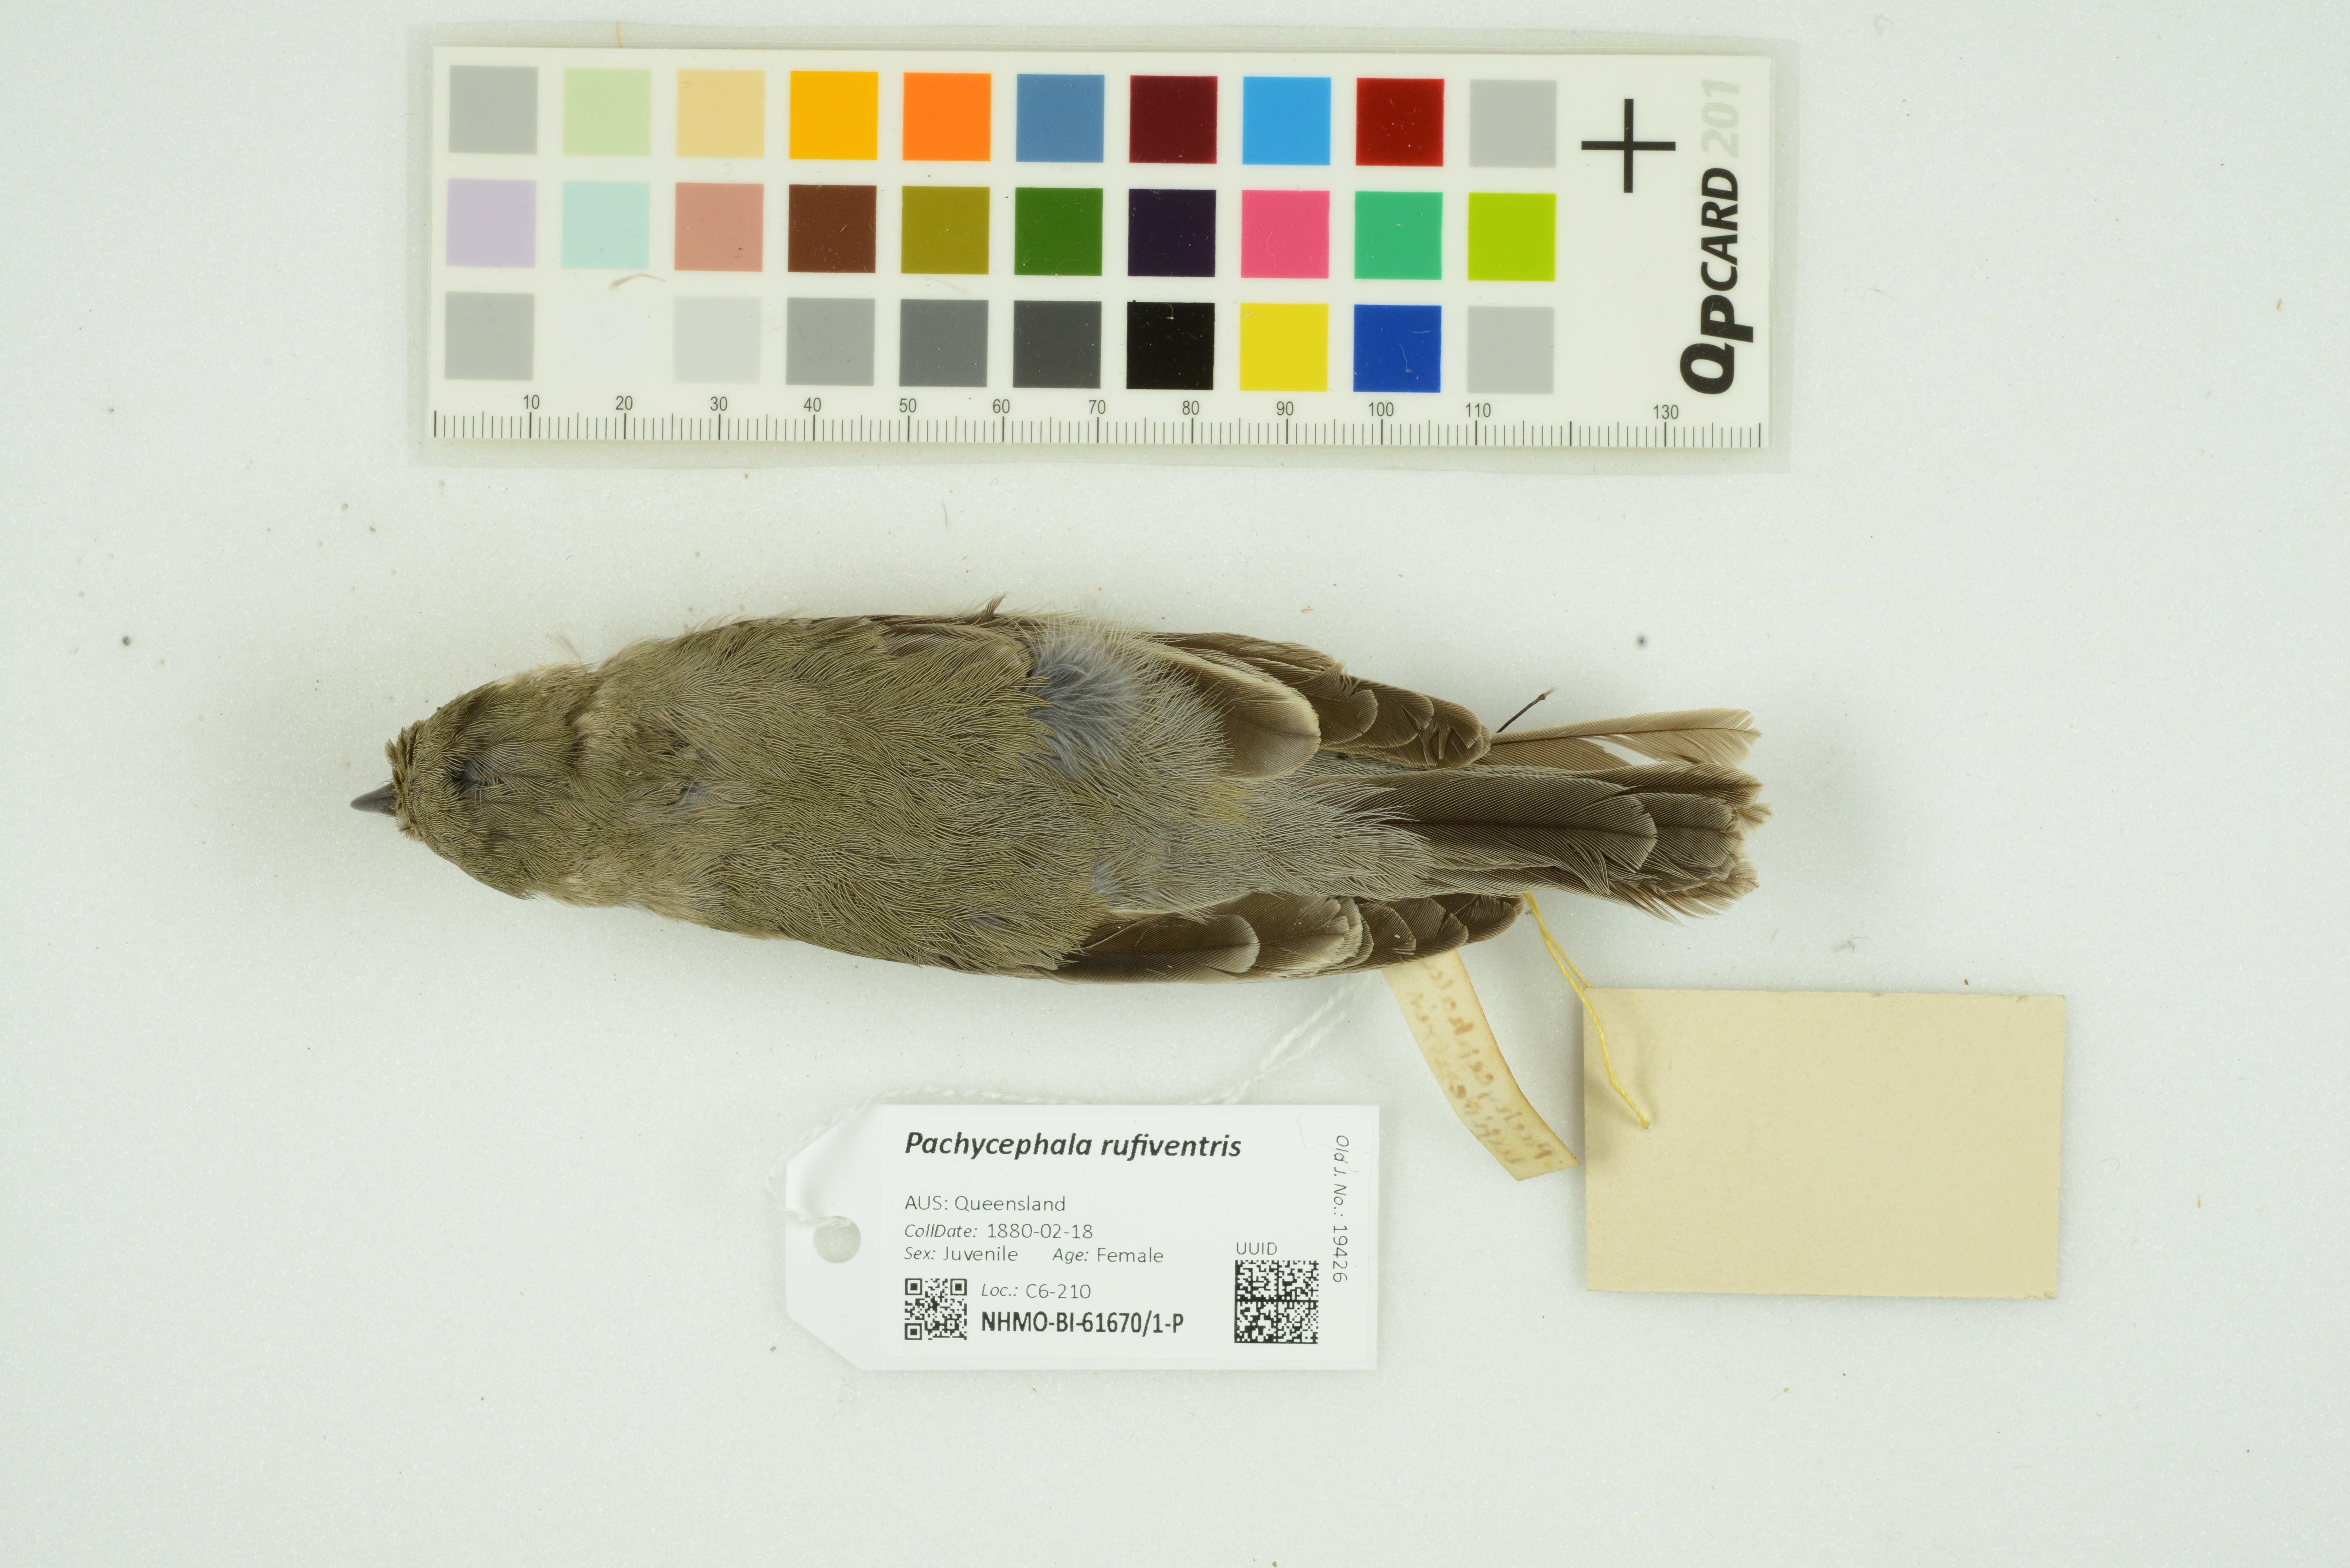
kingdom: Animalia
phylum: Chordata
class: Aves
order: Passeriformes
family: Pachycephalidae
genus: Pachycephala
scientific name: Pachycephala rufiventris
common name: Rufous whistler
